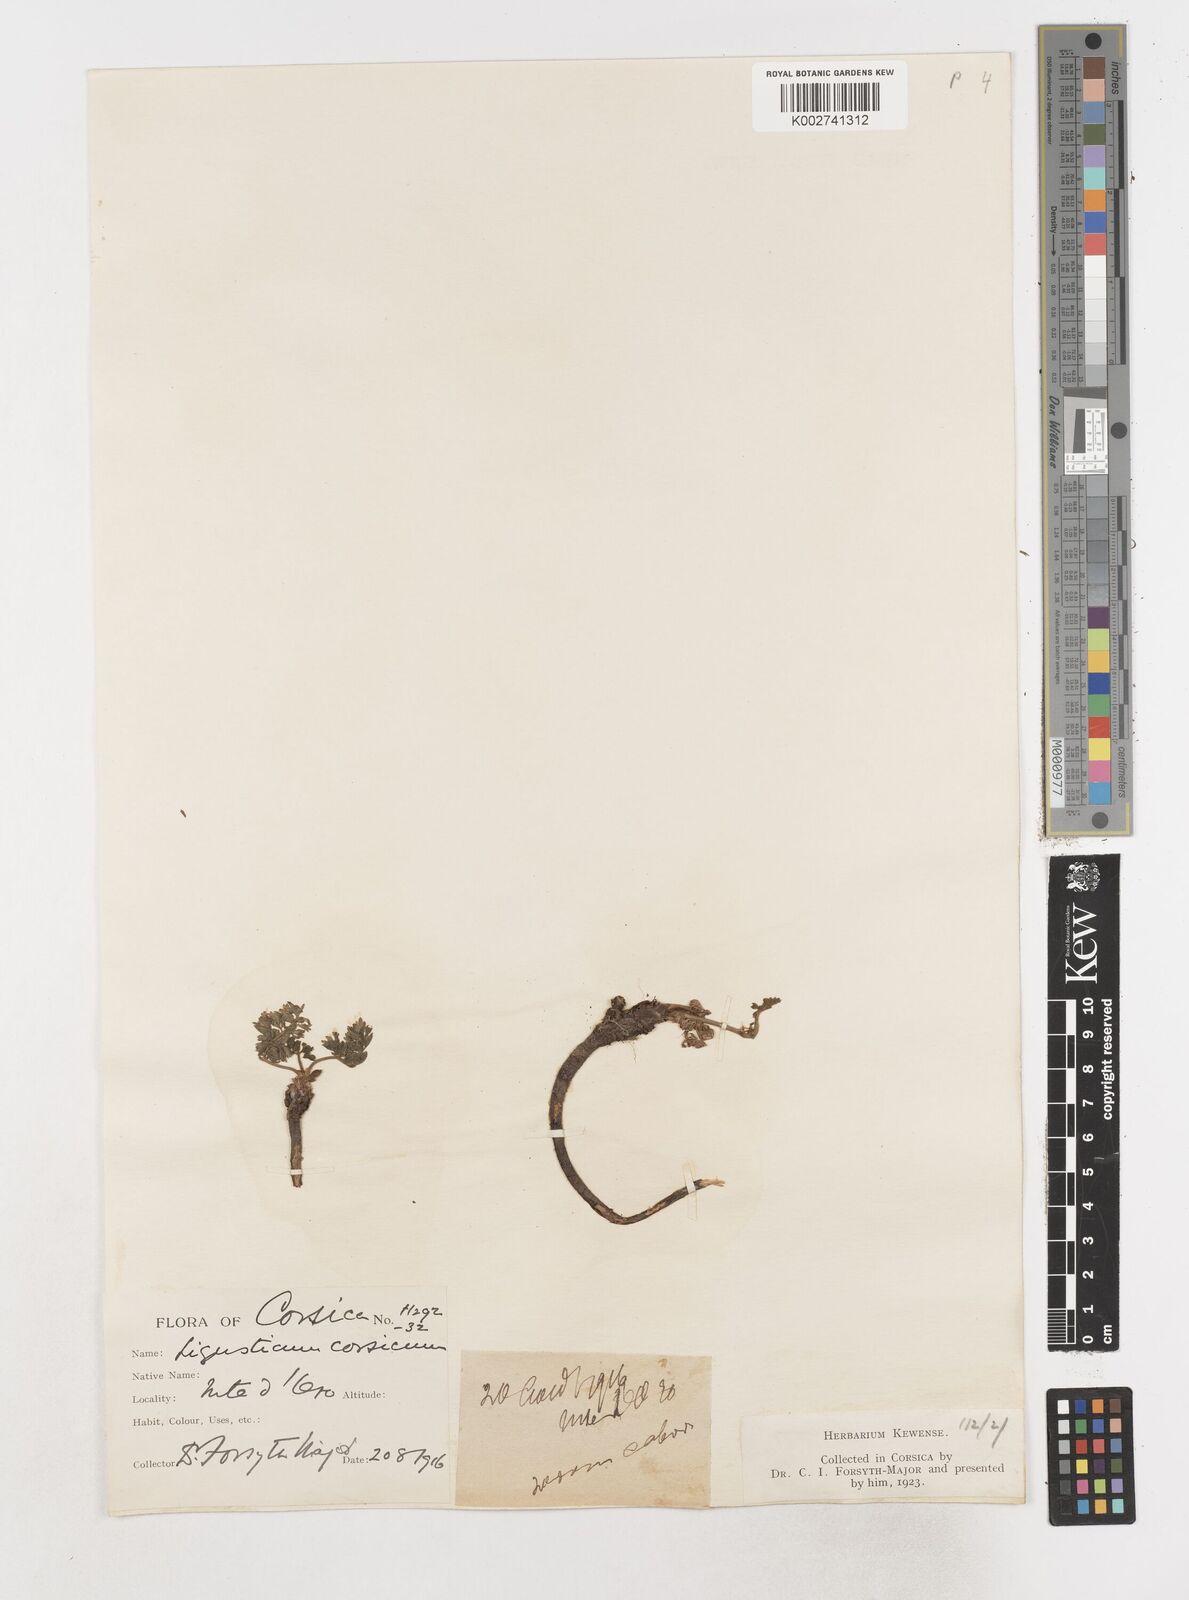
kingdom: Plantae
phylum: Tracheophyta
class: Magnoliopsida
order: Apiales
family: Apiaceae
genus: Mutellina
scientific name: Mutellina adonidifolia
